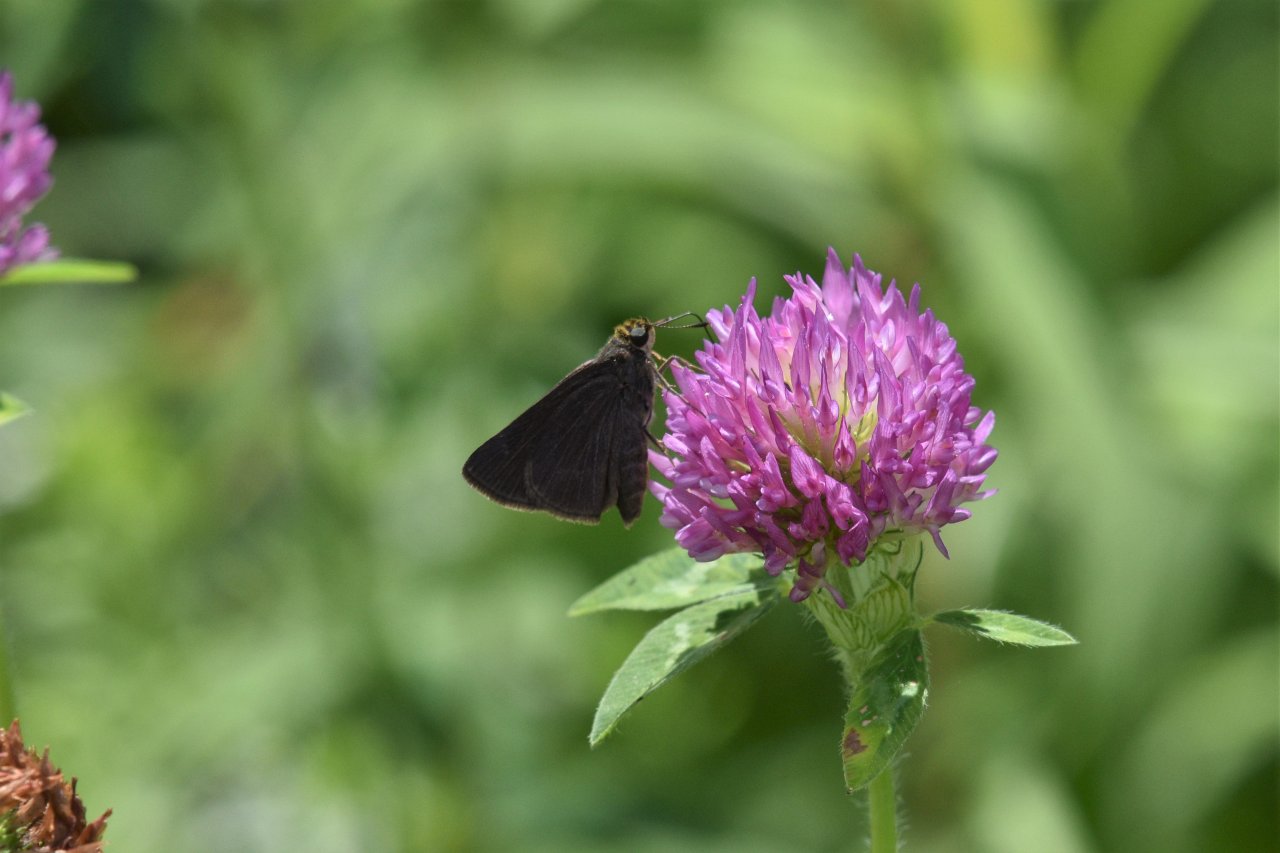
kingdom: Animalia
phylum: Arthropoda
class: Insecta
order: Lepidoptera
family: Hesperiidae
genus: Euphyes
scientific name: Euphyes vestris
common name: Dun Skipper
